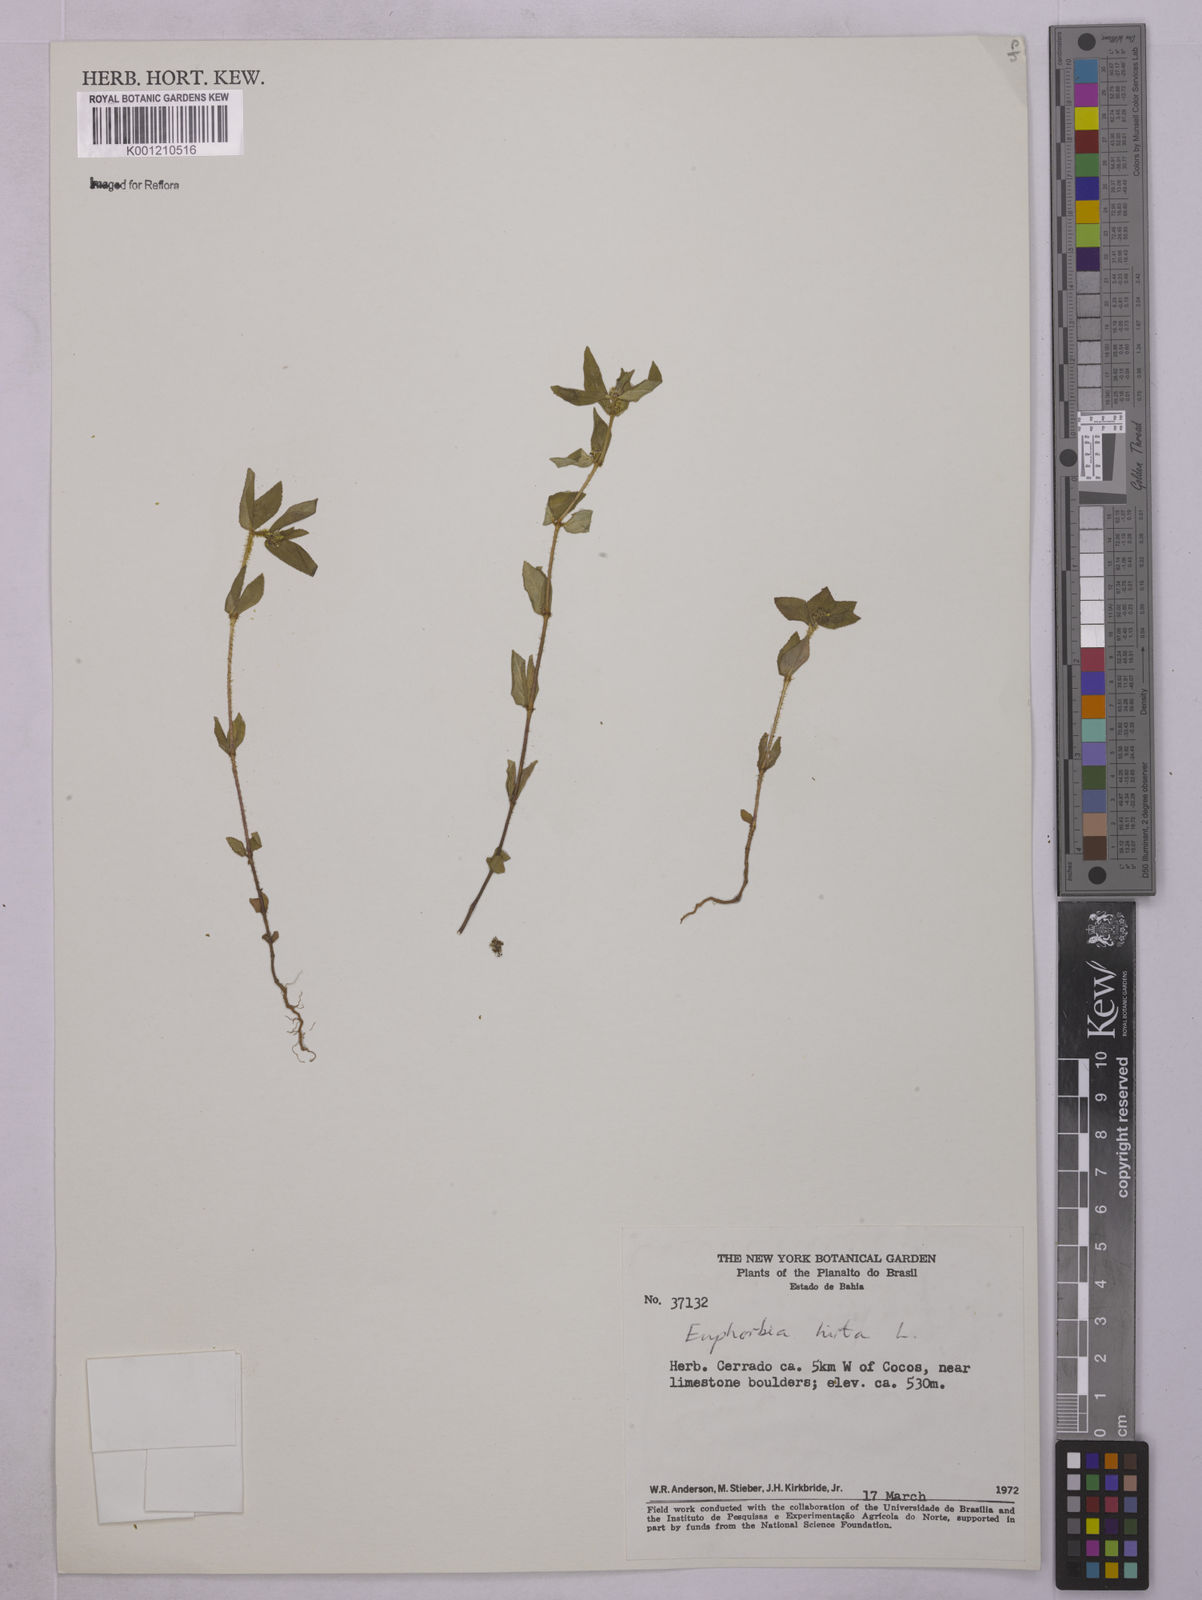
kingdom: Plantae
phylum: Tracheophyta
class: Magnoliopsida
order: Malpighiales
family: Euphorbiaceae
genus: Euphorbia
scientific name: Euphorbia hirta
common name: Pillpod sandmat
